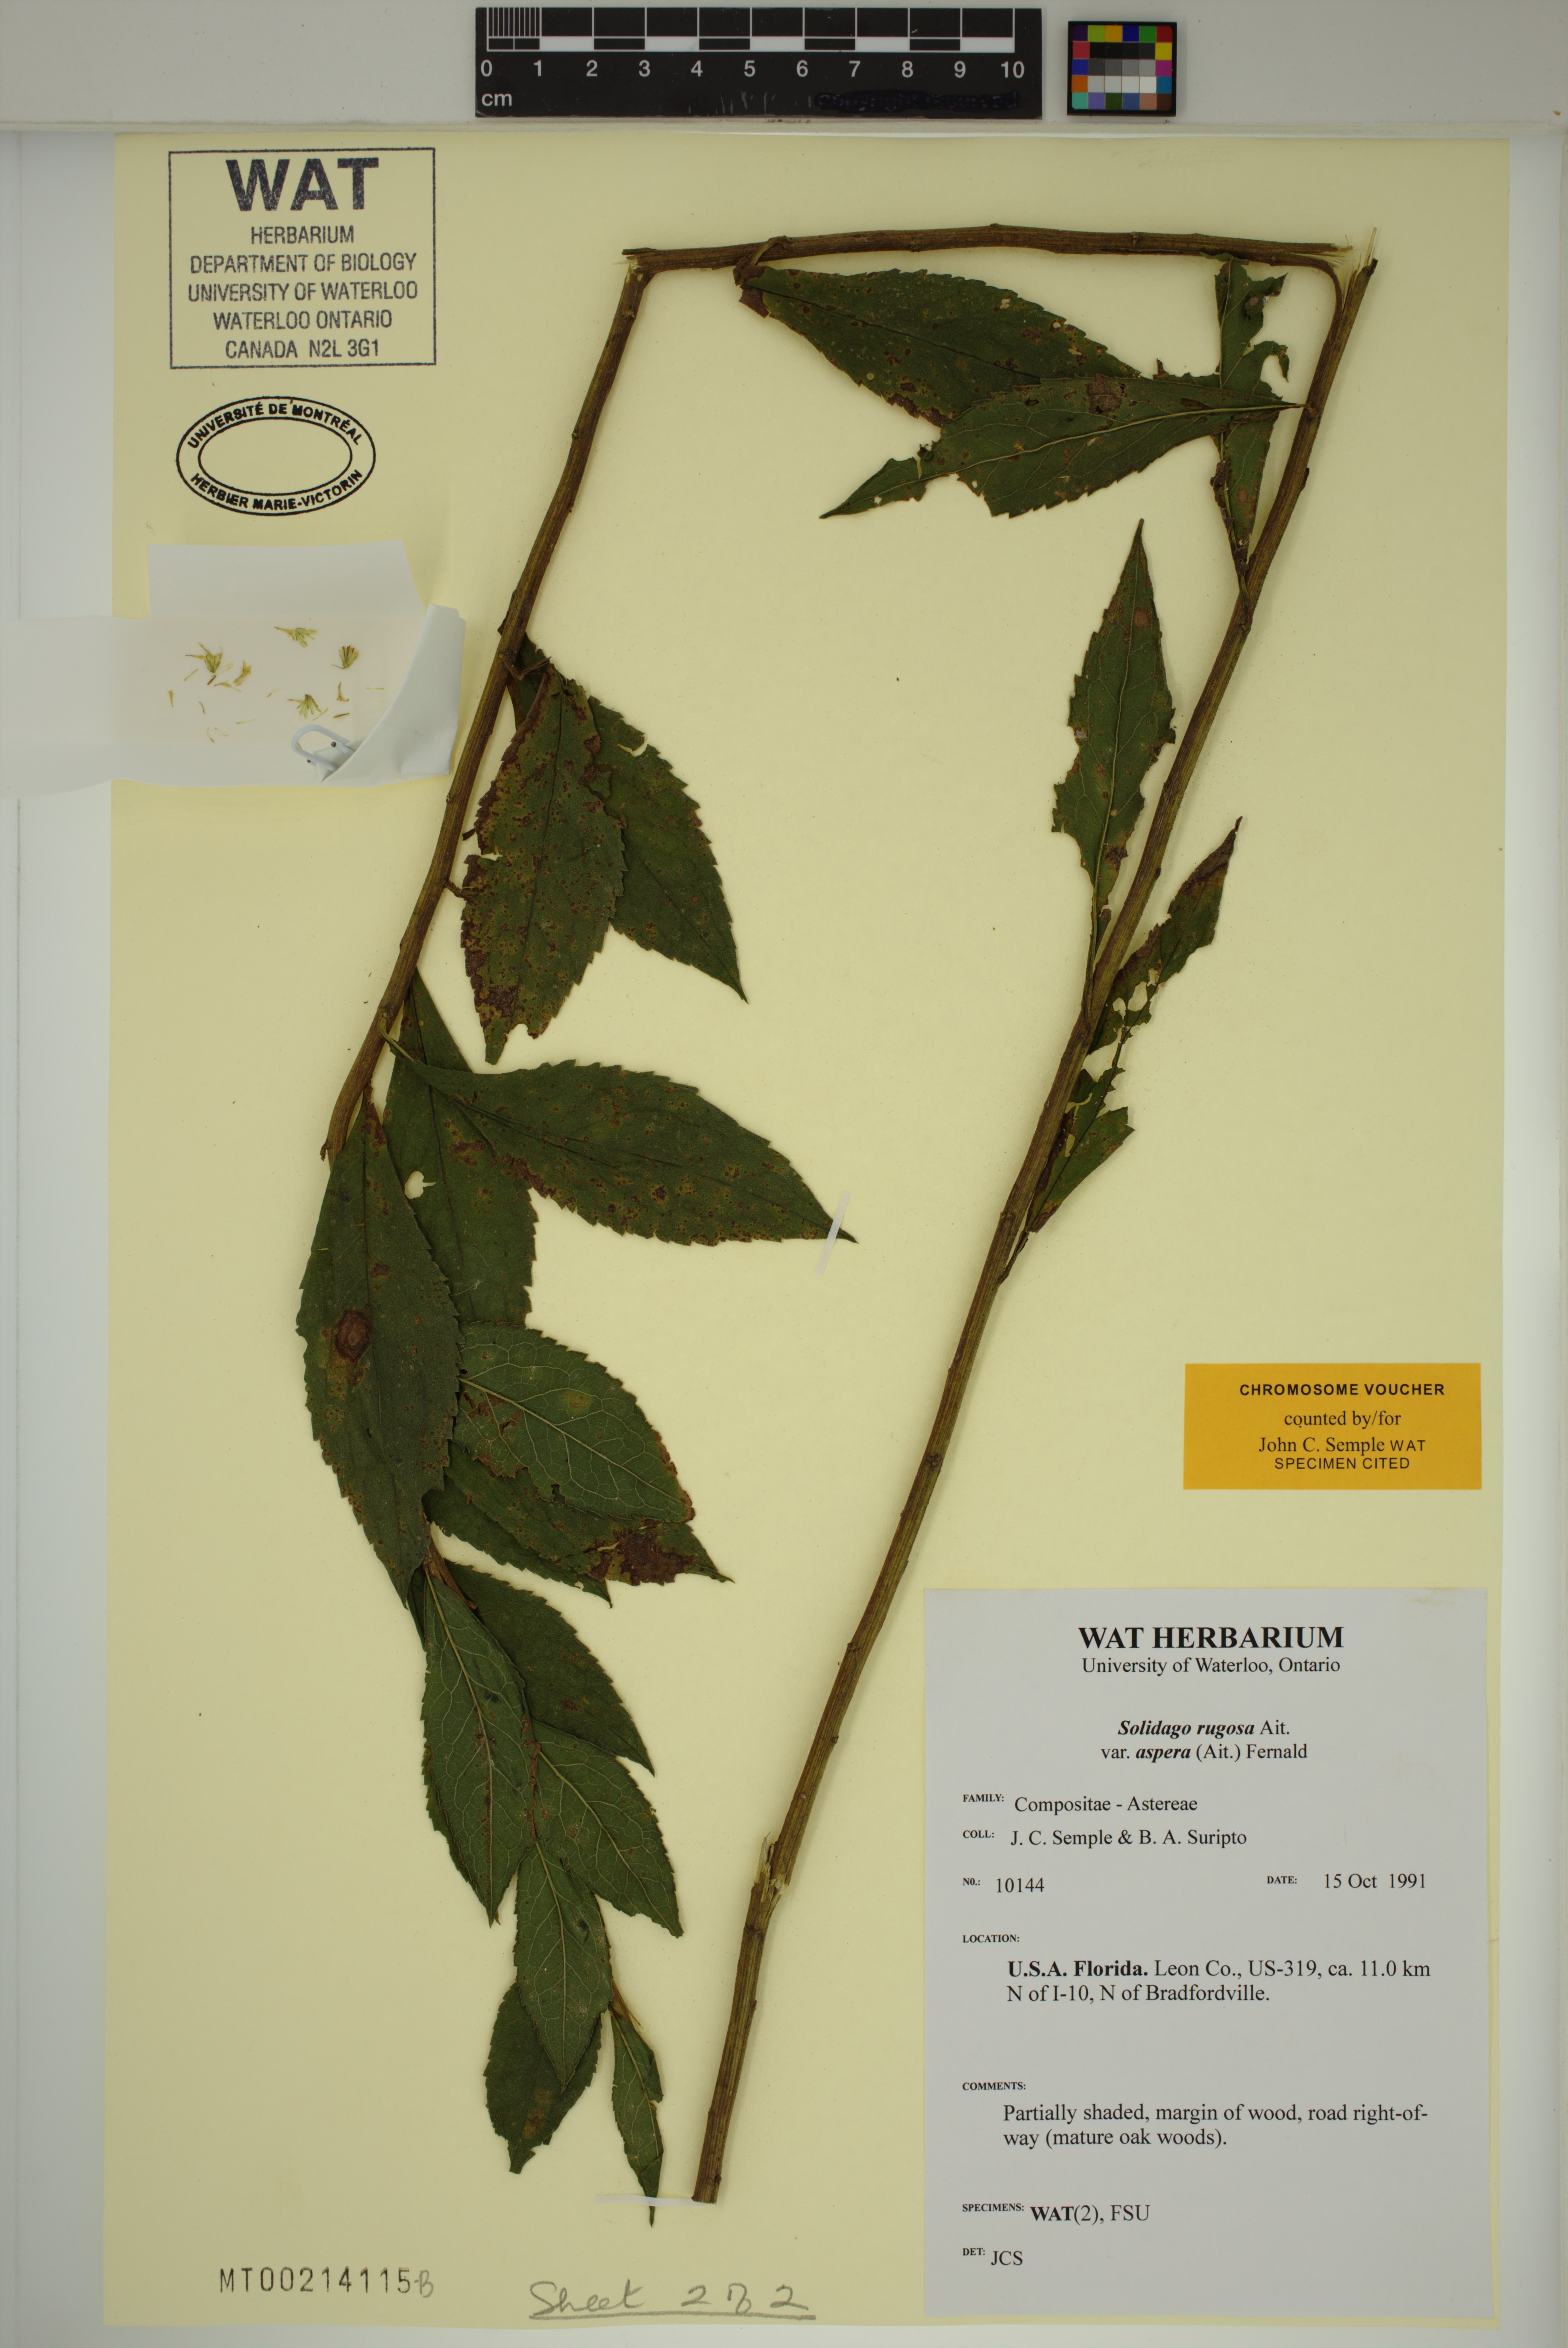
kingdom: Plantae
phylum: Tracheophyta
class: Magnoliopsida
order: Asterales
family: Asteraceae
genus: Solidago
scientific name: Solidago rugosa
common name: Rough-stemmed goldenrod
